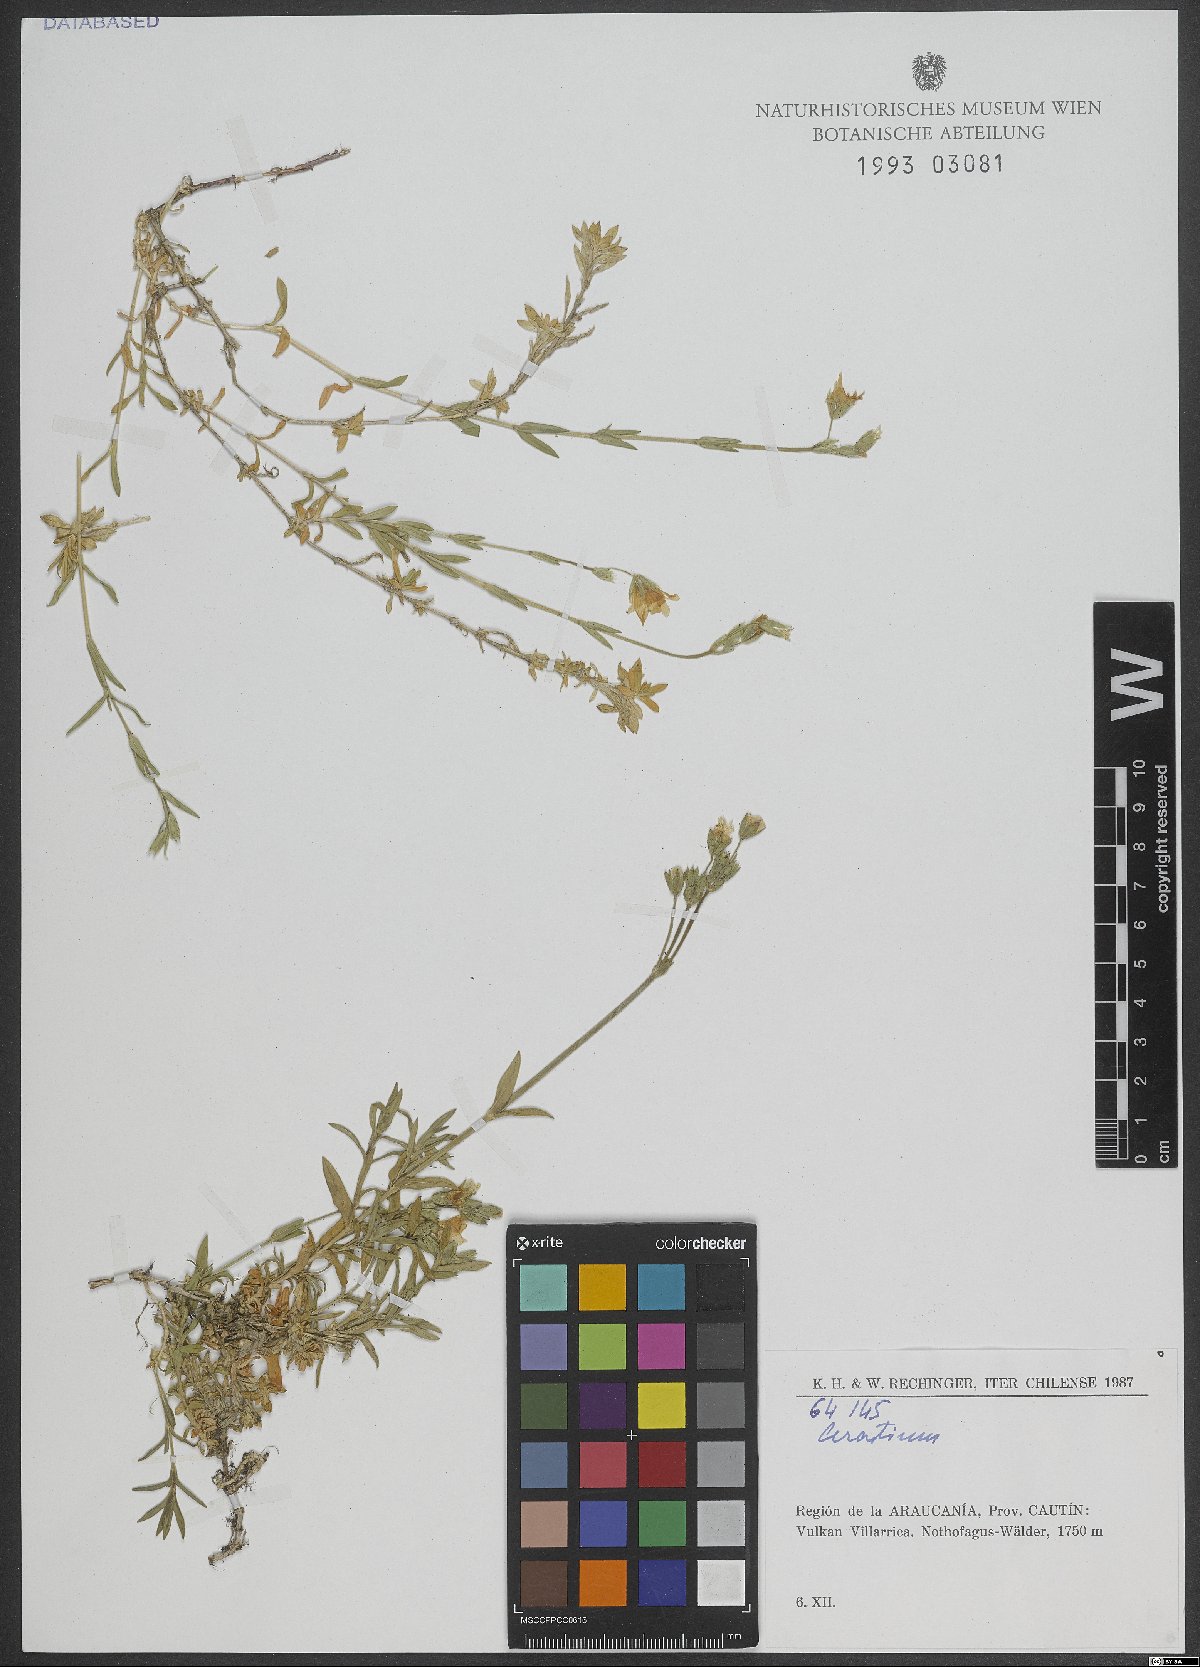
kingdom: Plantae
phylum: Tracheophyta
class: Magnoliopsida
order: Caryophyllales
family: Caryophyllaceae
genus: Cerastium
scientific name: Cerastium
